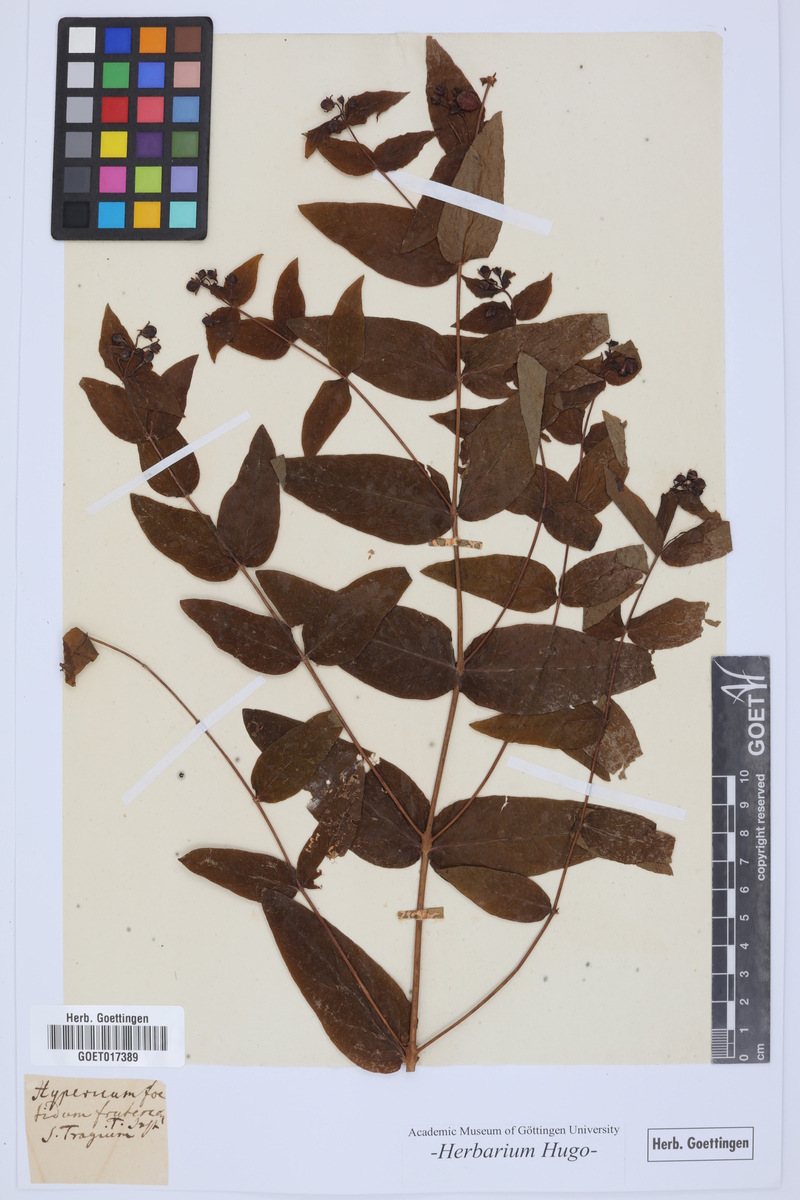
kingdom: Plantae
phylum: Tracheophyta
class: Magnoliopsida
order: Malpighiales
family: Hypericaceae
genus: Hypericum
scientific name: Hypericum hircinum
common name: Stinking tutsan
